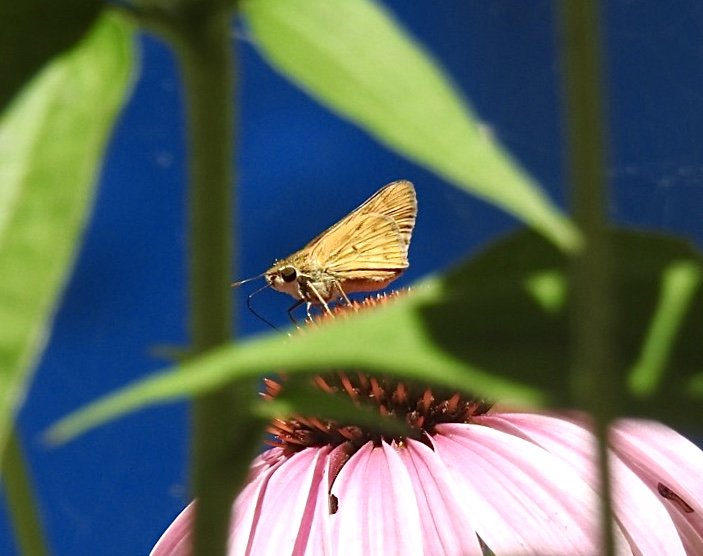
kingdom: Animalia
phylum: Arthropoda
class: Insecta
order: Lepidoptera
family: Hesperiidae
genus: Hylephila
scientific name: Hylephila phyleus
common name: Fiery Skipper
